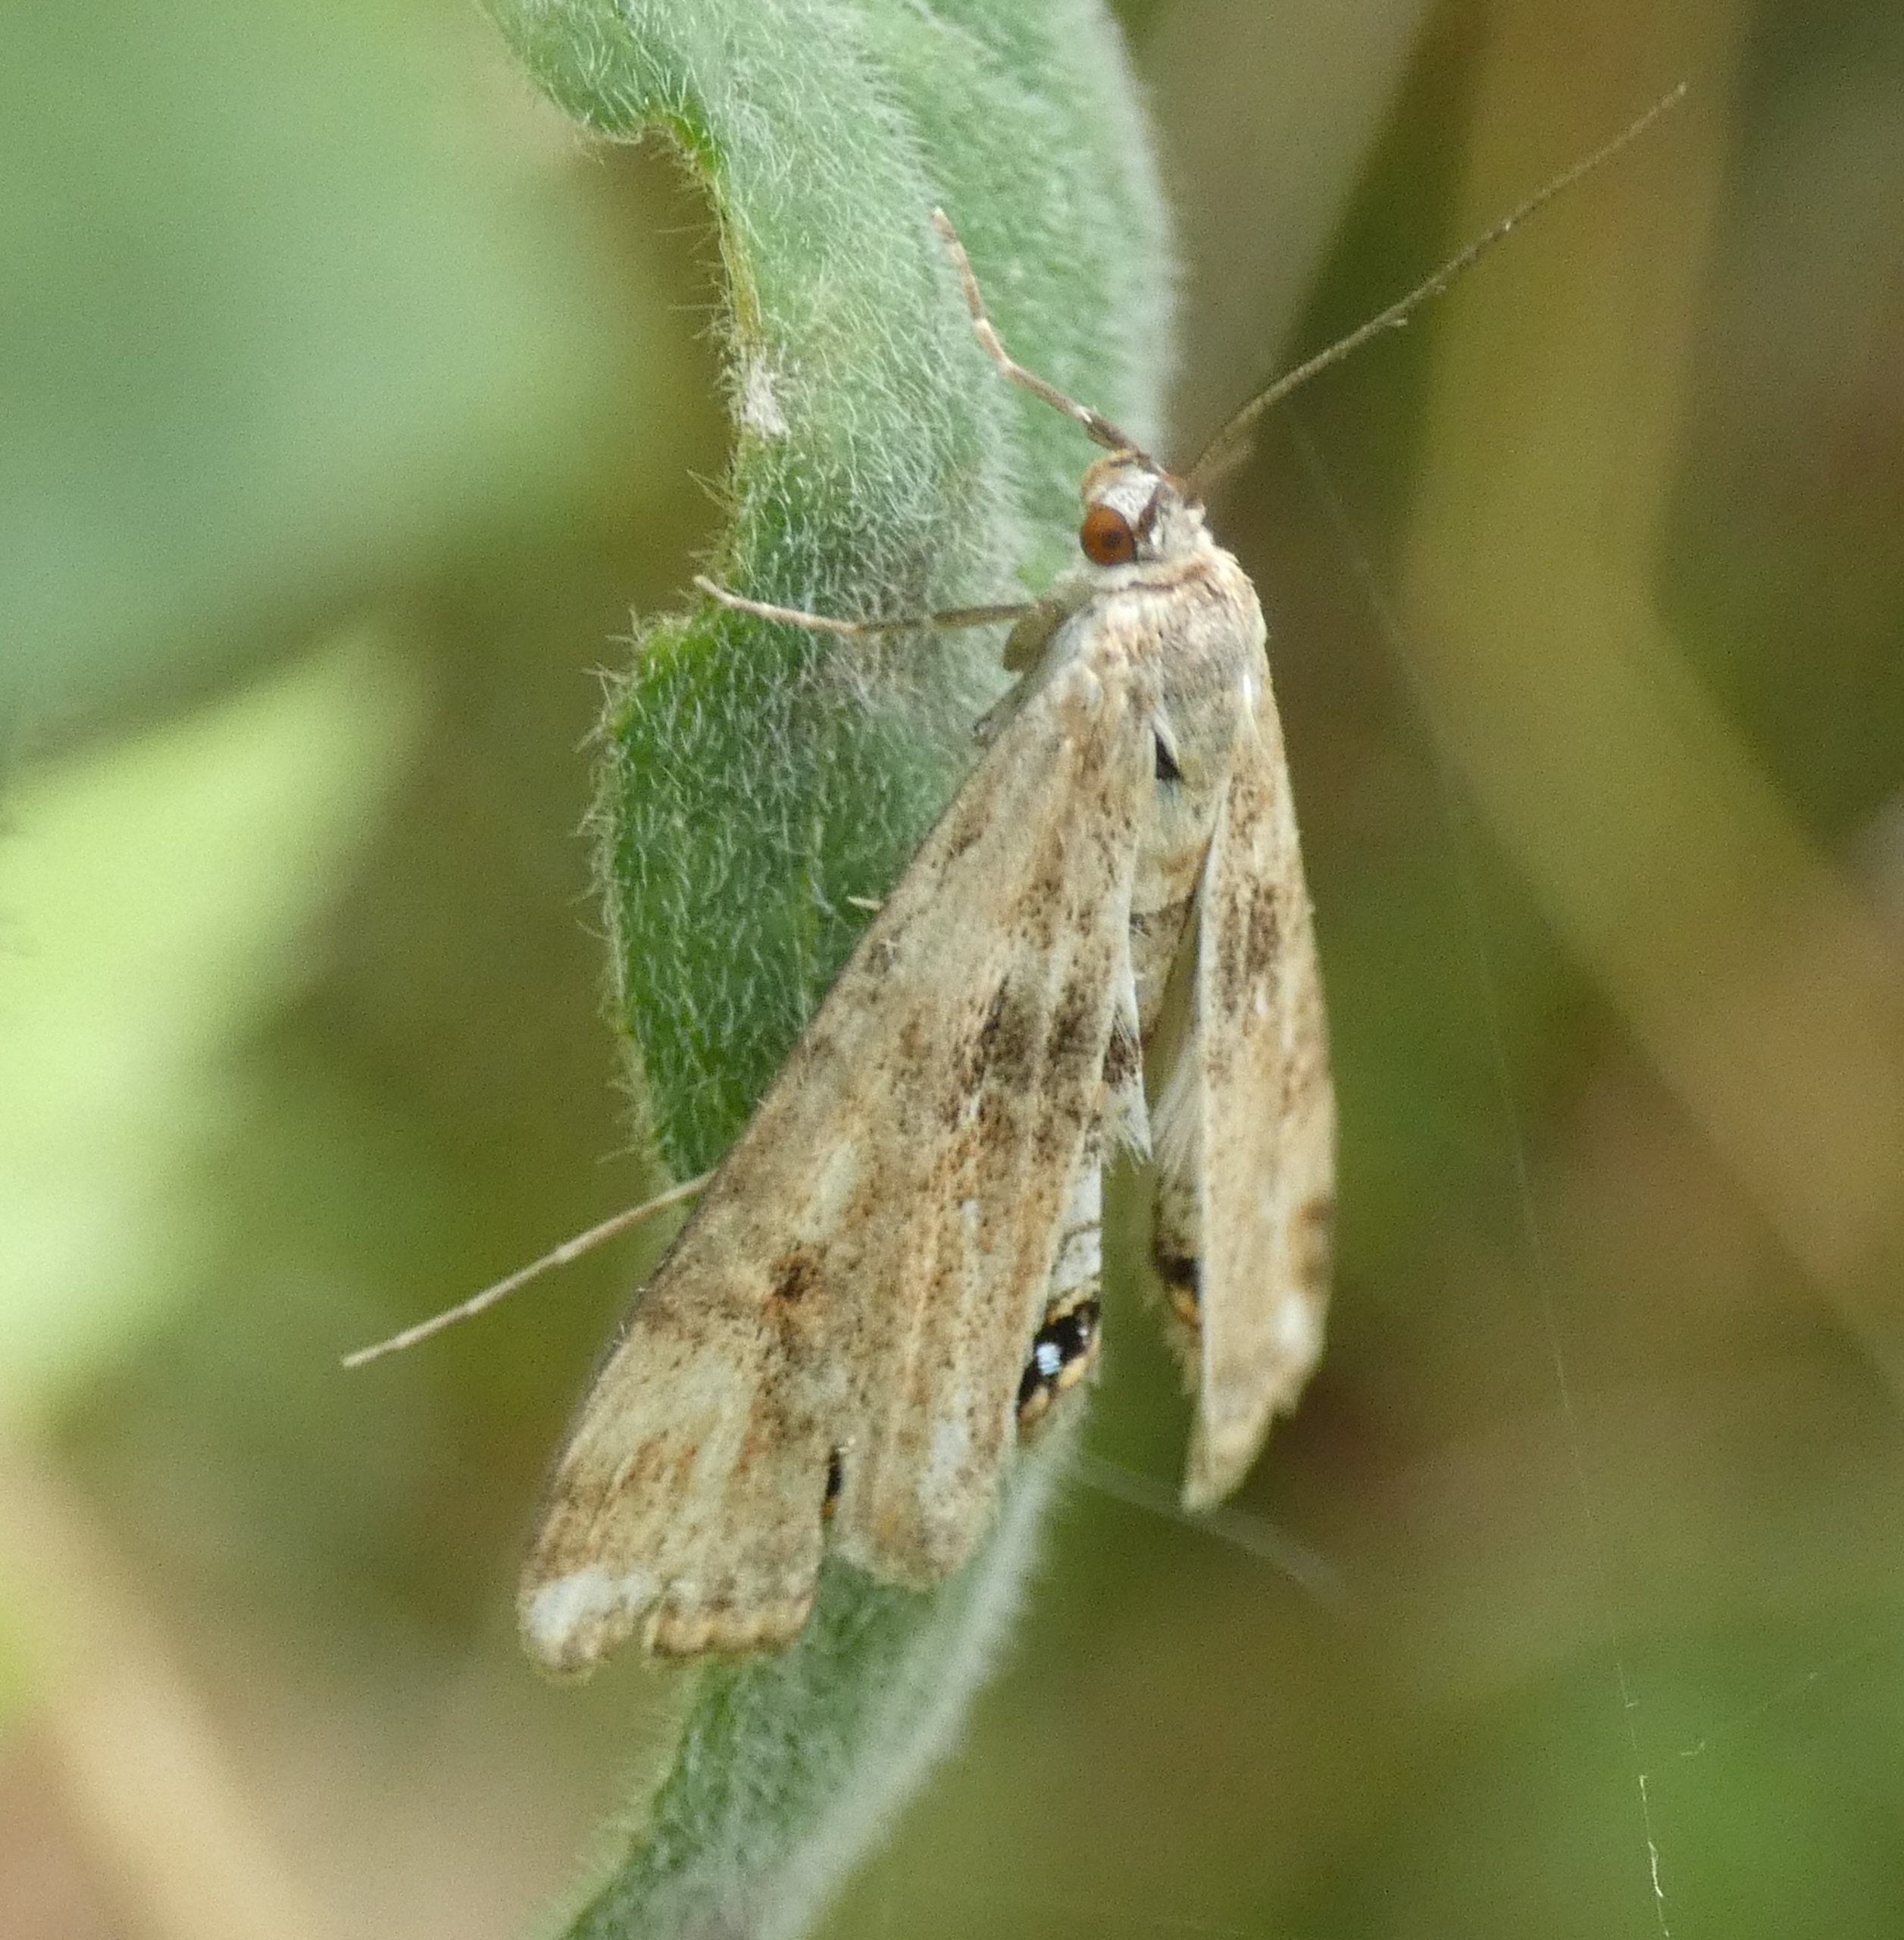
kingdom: Animalia
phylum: Arthropoda
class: Insecta
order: Lepidoptera
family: Crambidae
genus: Cataclysta
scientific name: Cataclysta lemnata
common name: Andemadhalvmøl
